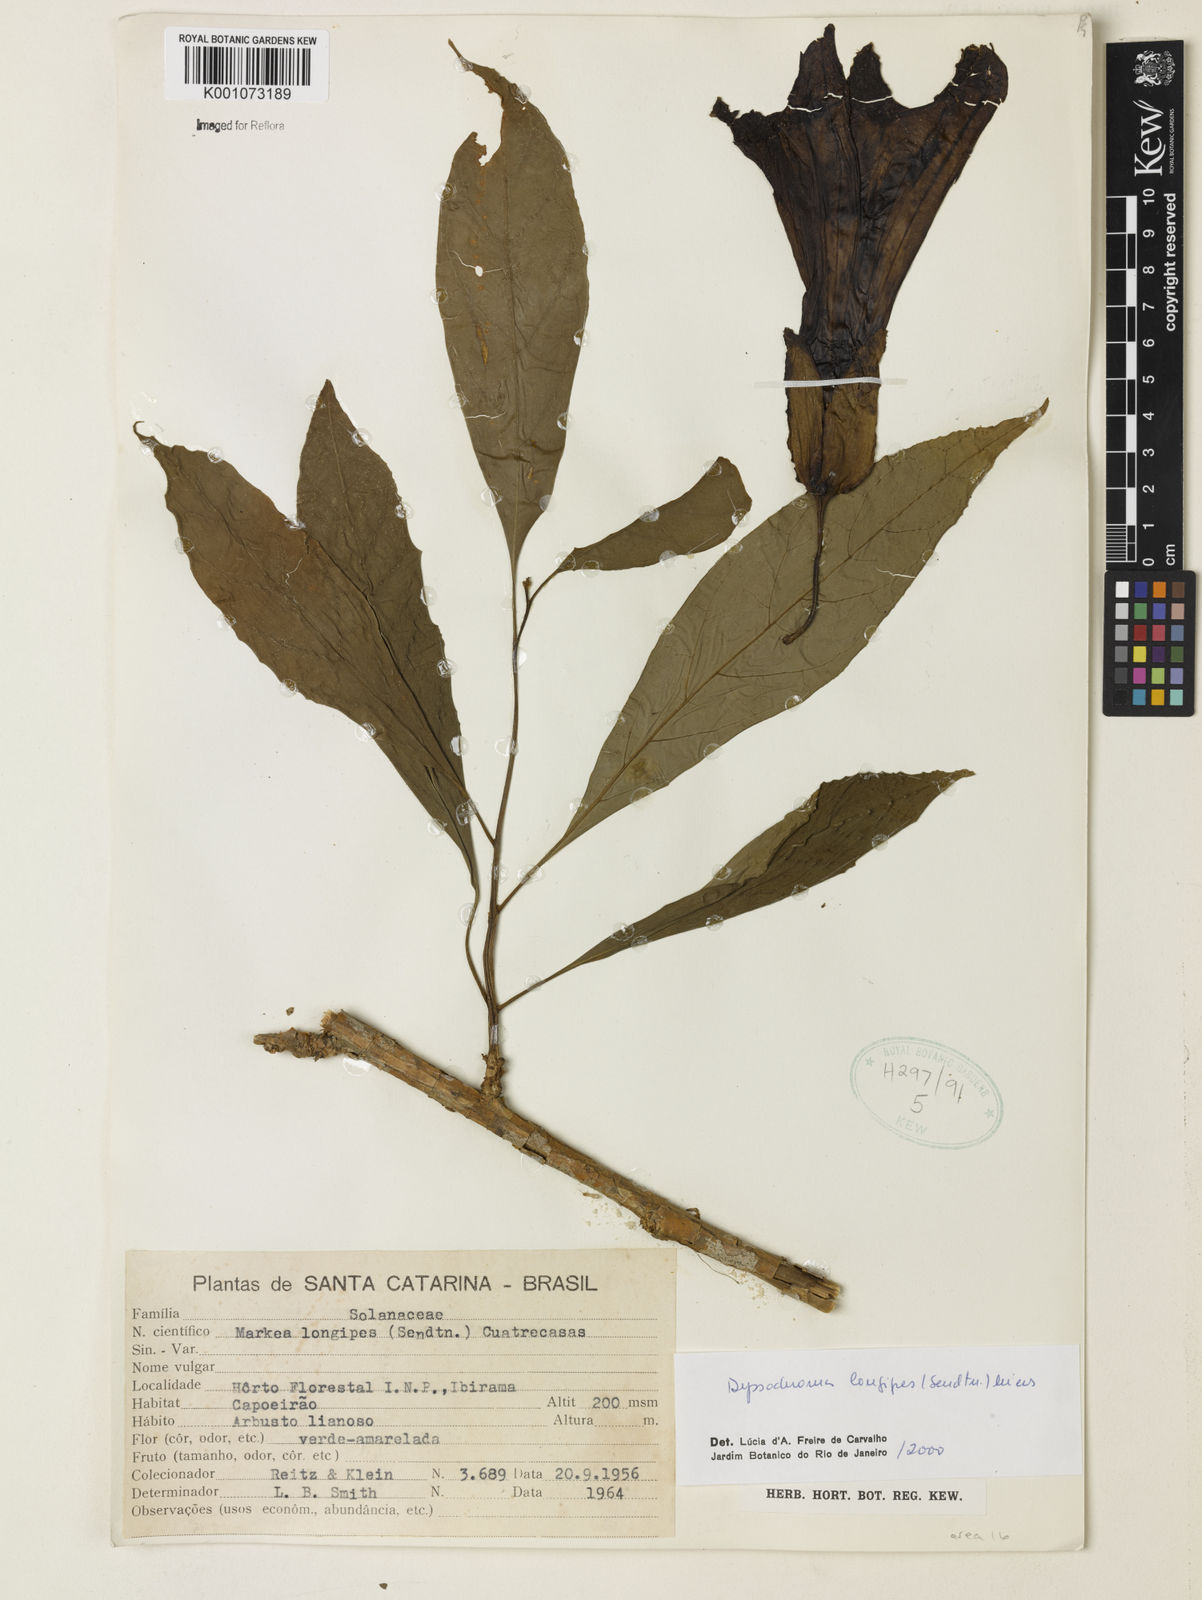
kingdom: Plantae
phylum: Tracheophyta
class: Magnoliopsida
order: Solanales
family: Solanaceae
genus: Dyssochroma
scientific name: Dyssochroma longipes
